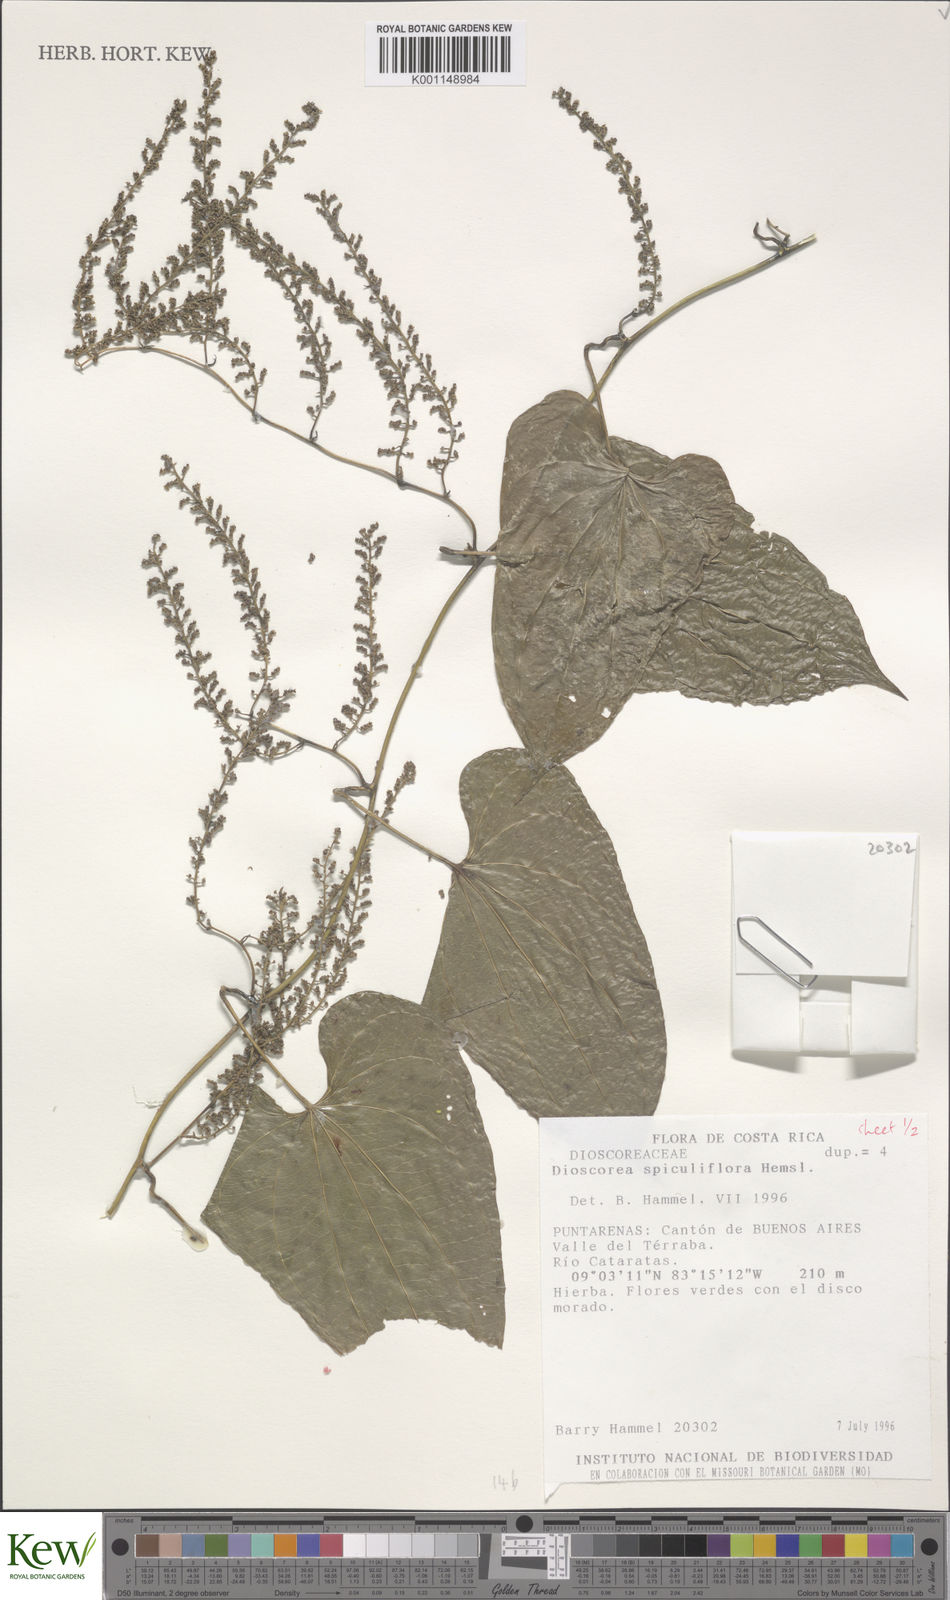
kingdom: Plantae
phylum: Tracheophyta
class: Liliopsida
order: Dioscoreales
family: Dioscoreaceae
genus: Dioscorea
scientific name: Dioscorea spiculiflora
